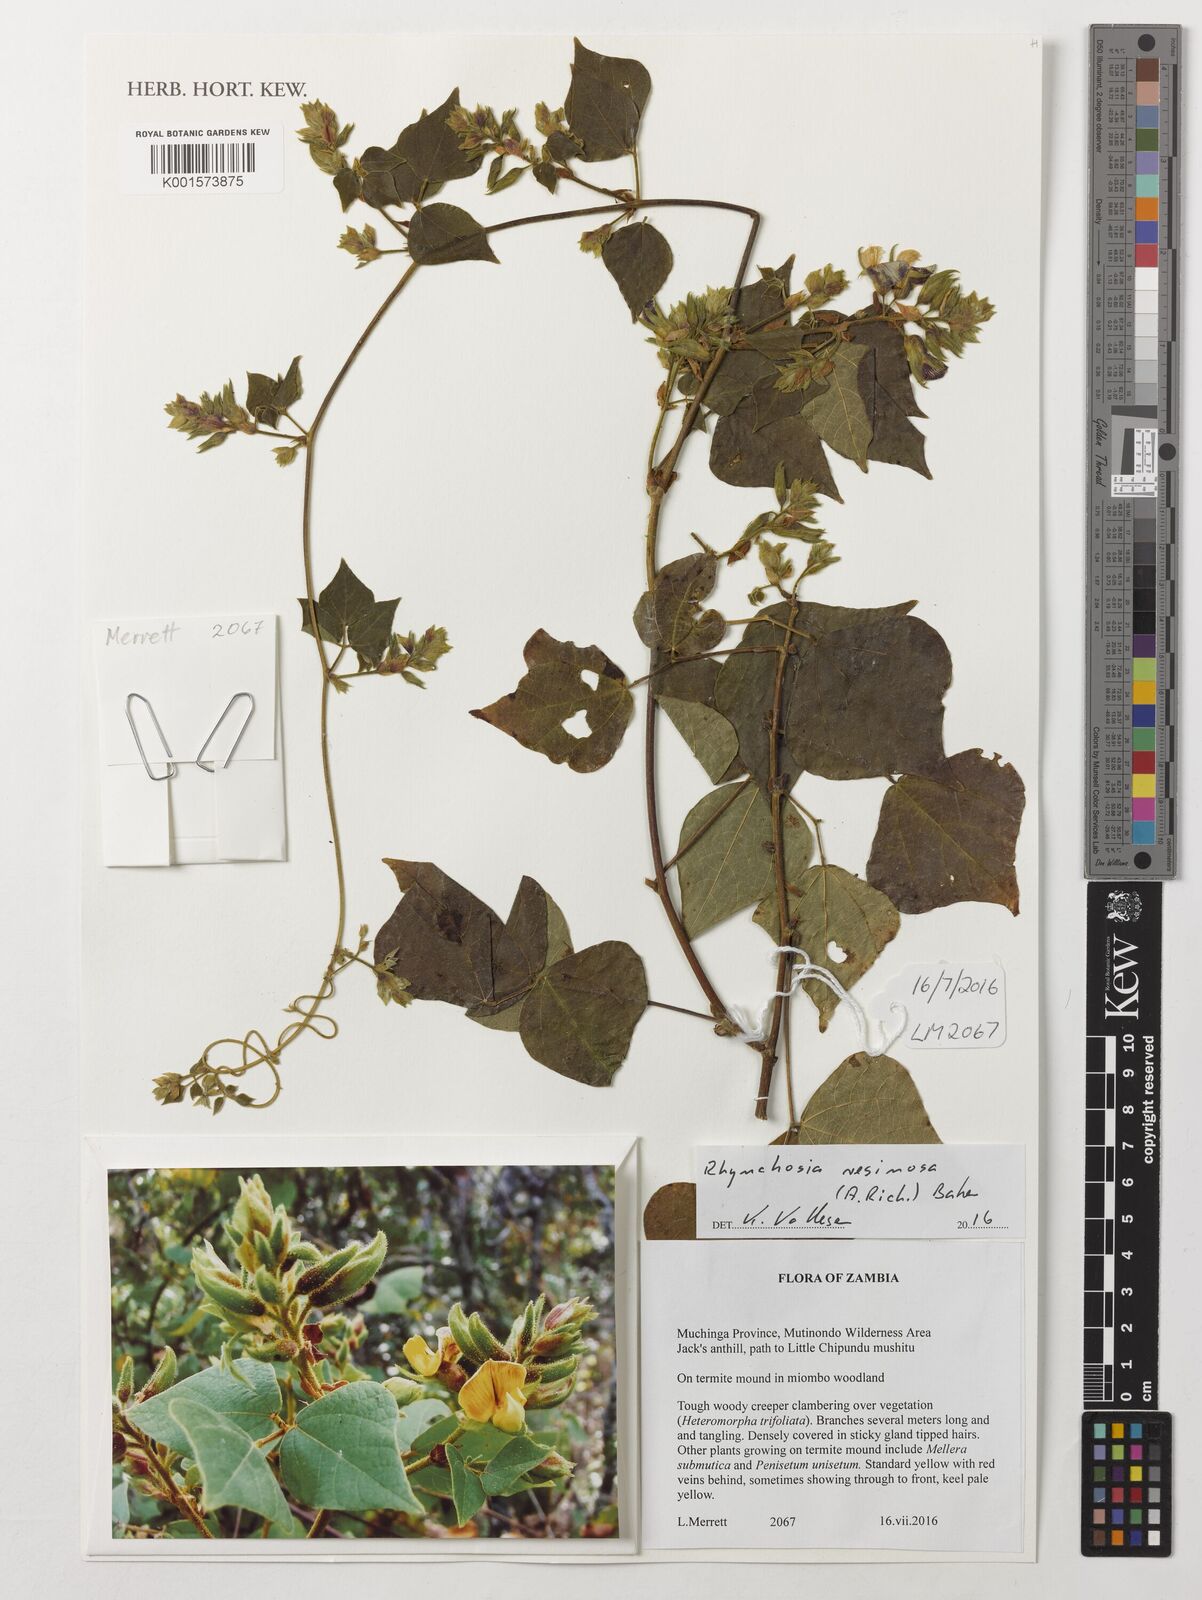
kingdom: Plantae
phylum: Tracheophyta
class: Magnoliopsida
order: Fabales
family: Fabaceae
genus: Rhynchosia
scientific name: Rhynchosia resinosa
